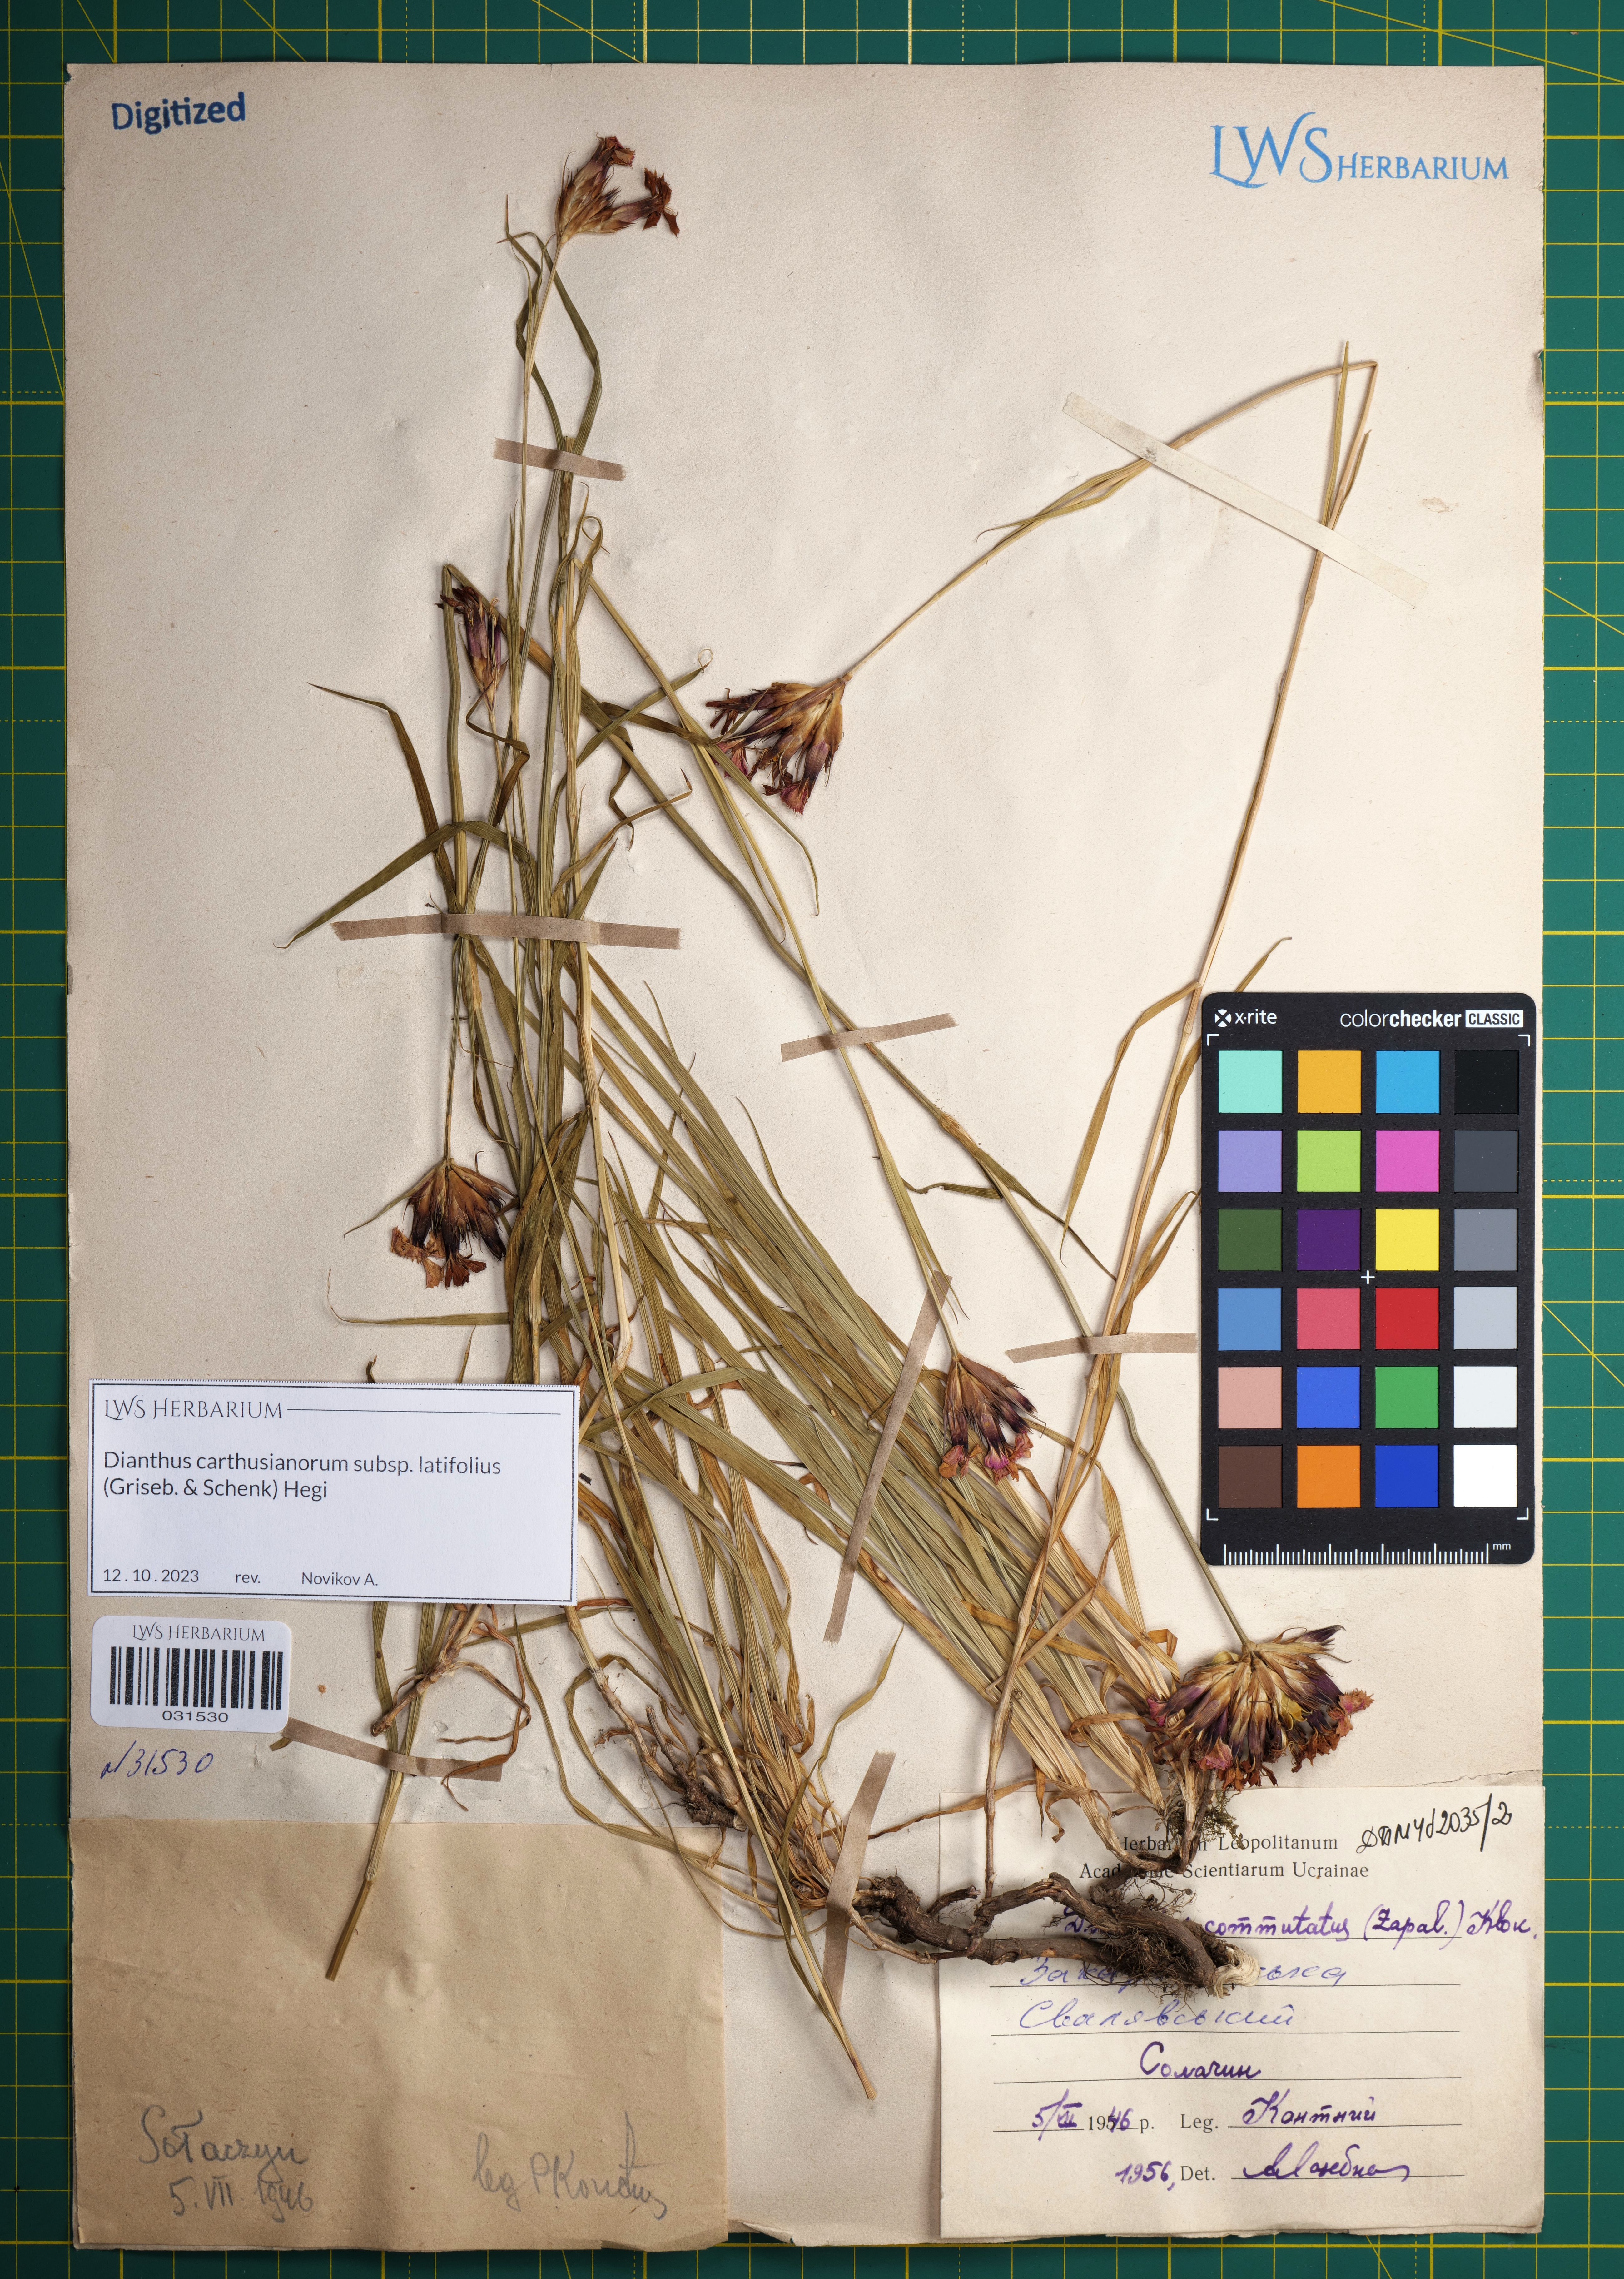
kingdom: Plantae
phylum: Tracheophyta
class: Magnoliopsida
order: Caryophyllales
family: Caryophyllaceae
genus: Dianthus
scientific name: Dianthus carthusianorum
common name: Carthusian pink
